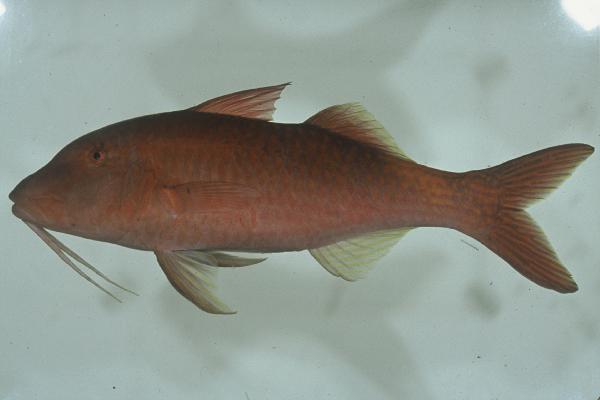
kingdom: Animalia
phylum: Chordata
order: Perciformes
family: Mullidae
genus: Parupeneus
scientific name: Parupeneus cyclostomus
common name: Goldsaddle goatfish
